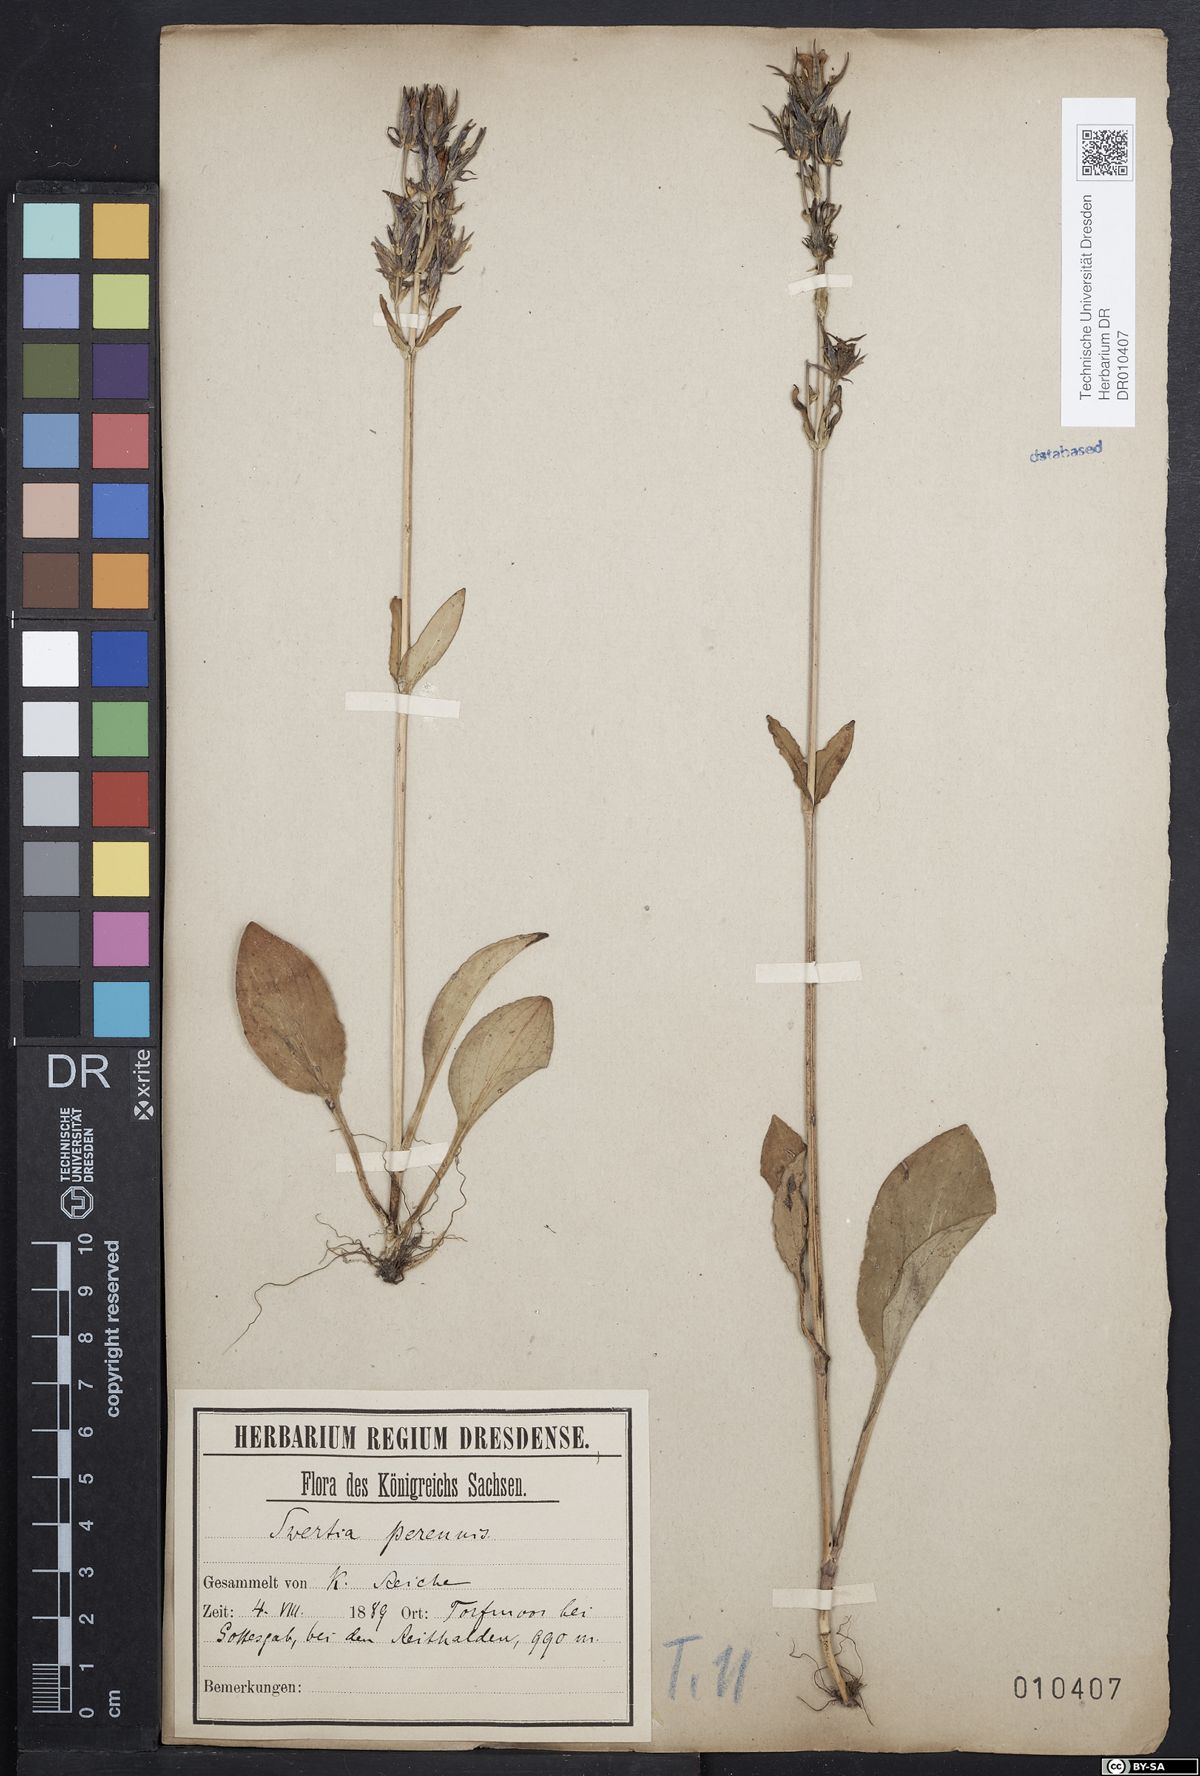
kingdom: Plantae
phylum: Tracheophyta
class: Magnoliopsida
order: Gentianales
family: Gentianaceae
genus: Swertia
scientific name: Swertia perennis
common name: Alpine bog swertia
